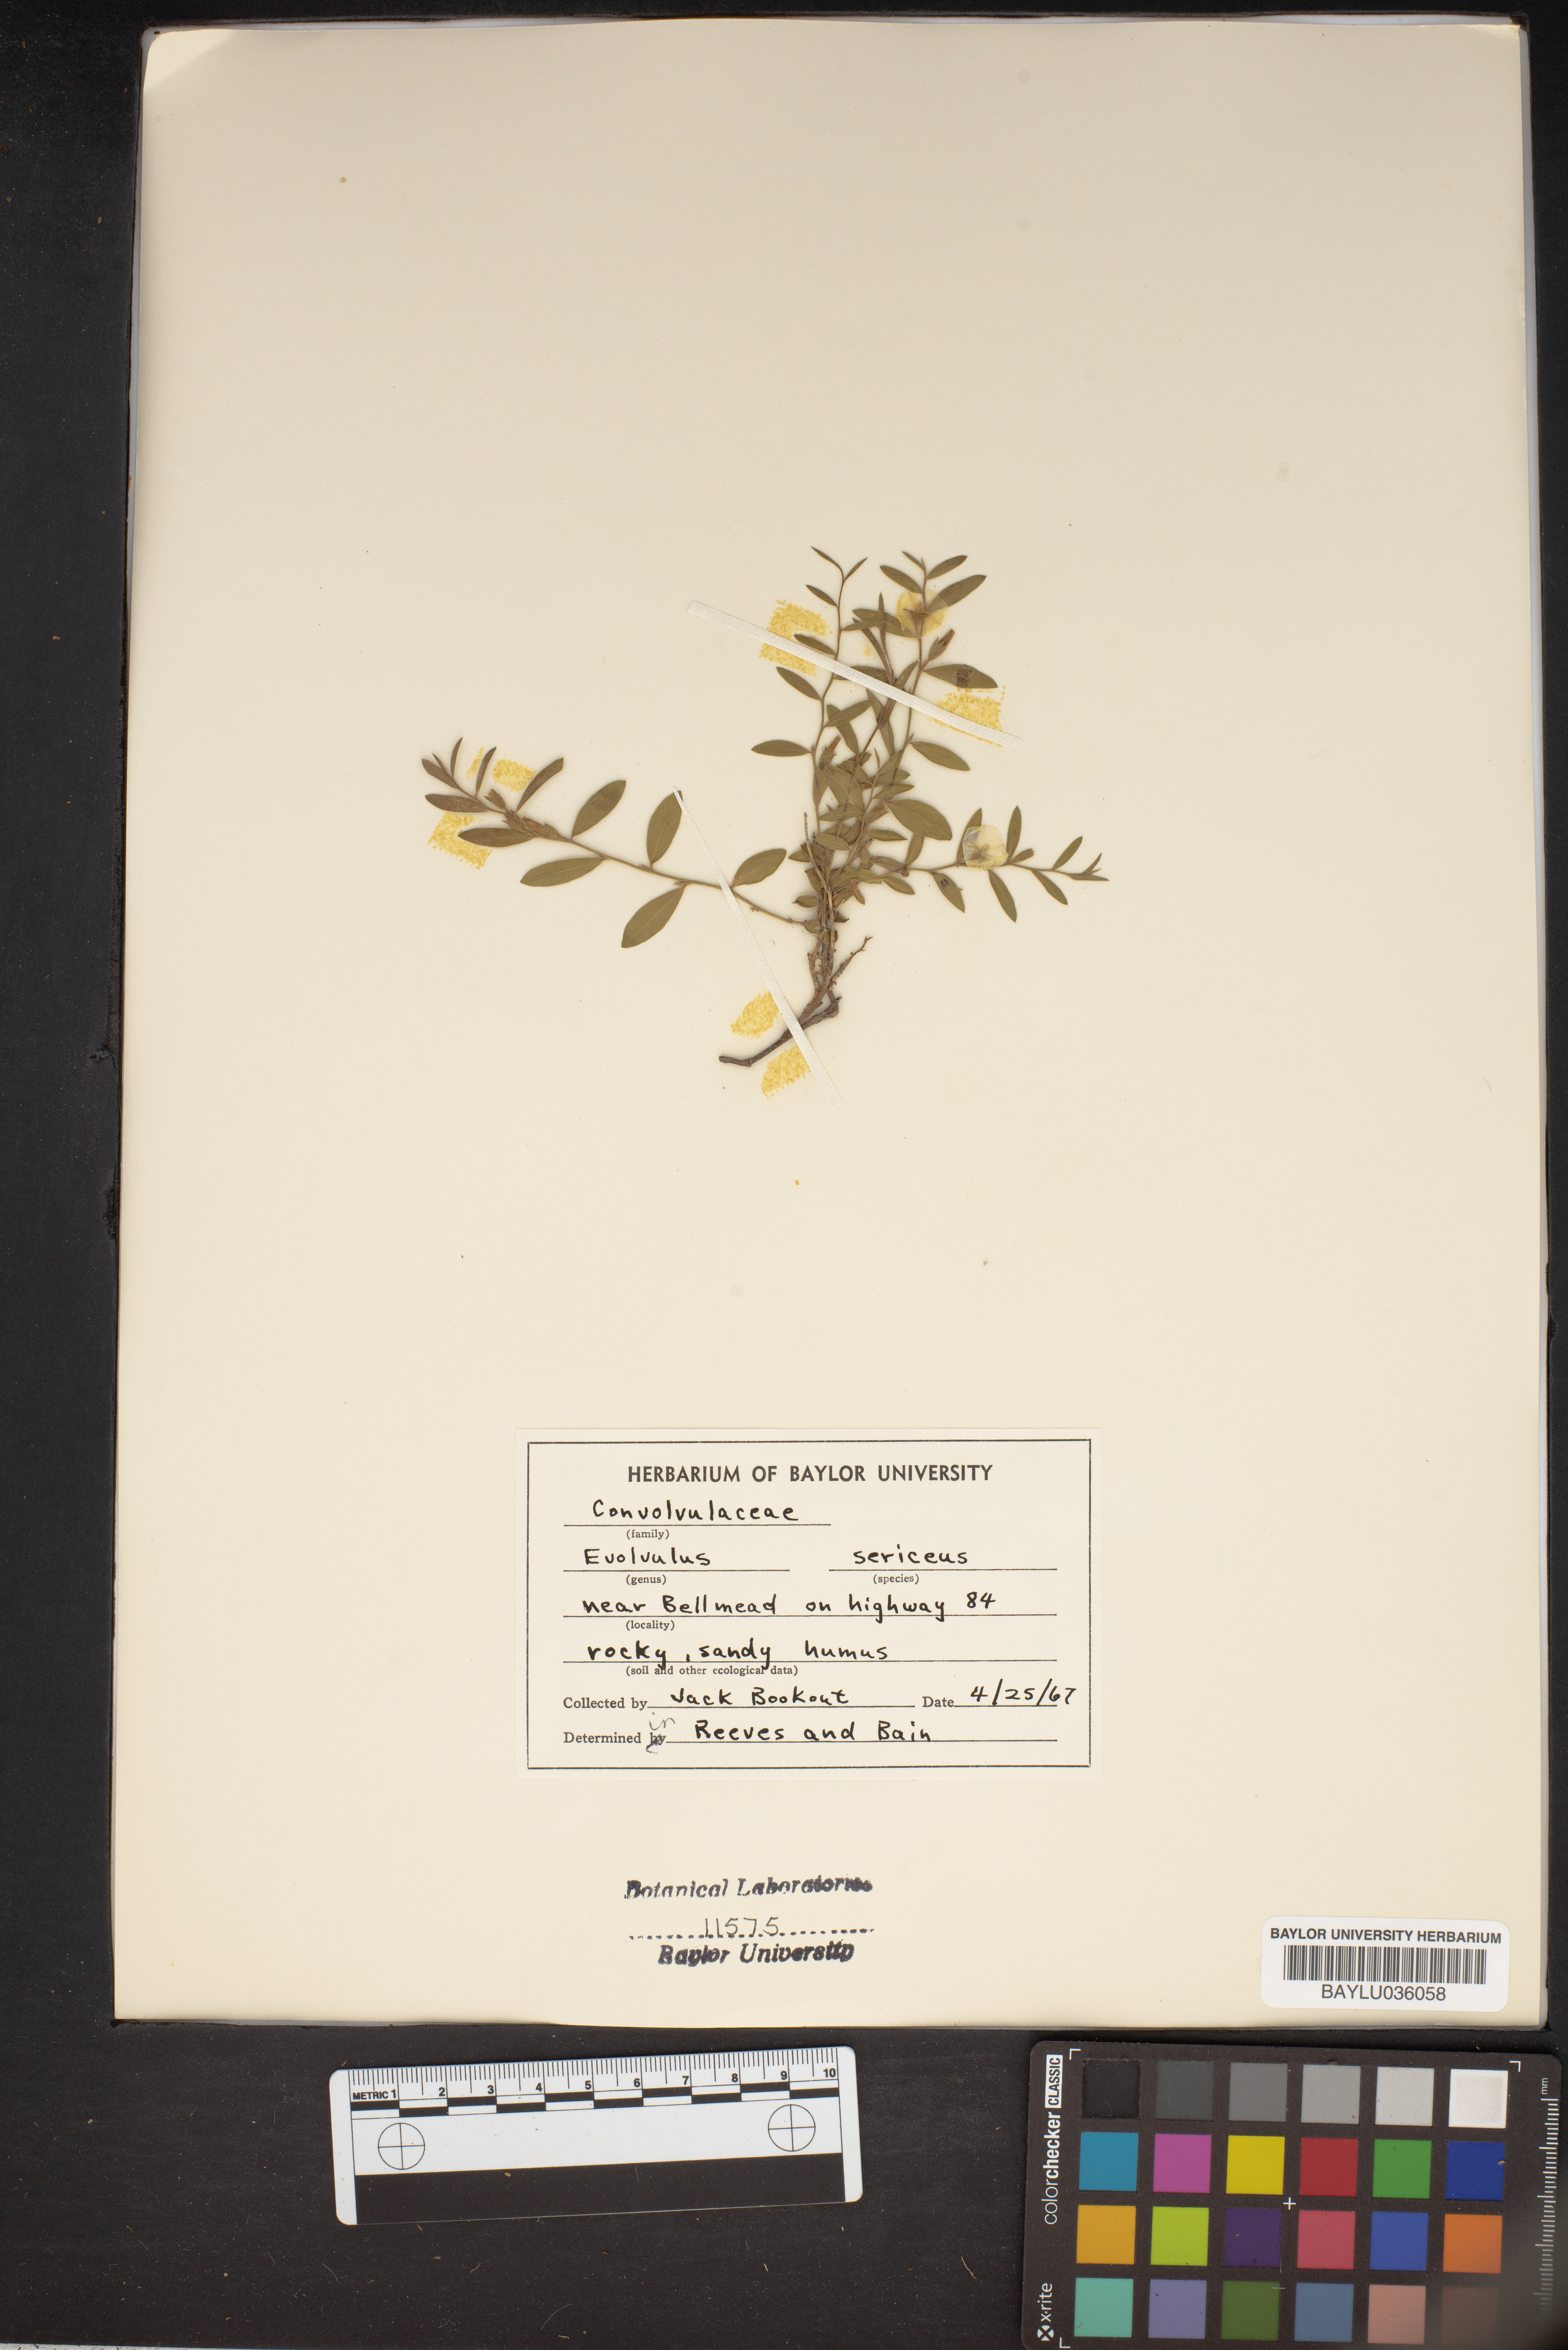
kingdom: Plantae
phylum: Tracheophyta
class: Magnoliopsida
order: Solanales
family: Convolvulaceae
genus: Evolvulus
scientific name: Evolvulus sericeus
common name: Blue dots
